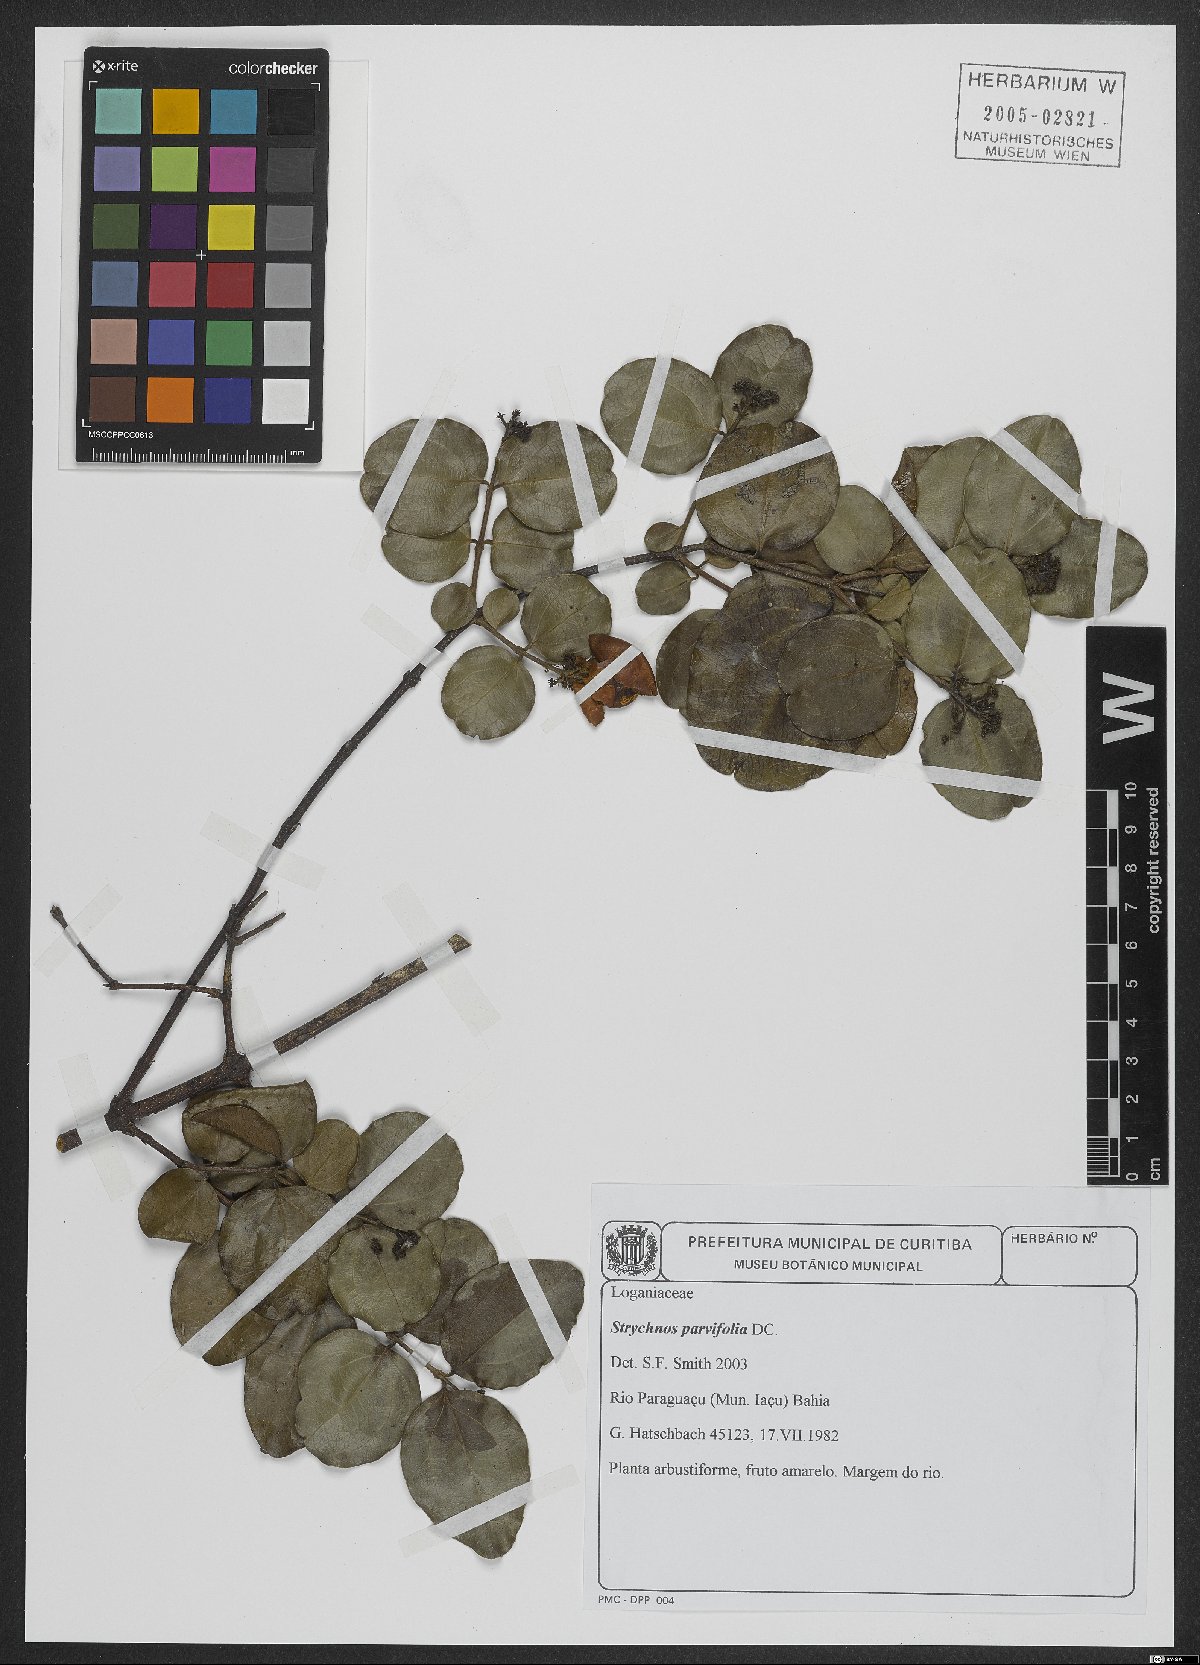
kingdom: Plantae
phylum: Tracheophyta
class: Magnoliopsida
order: Gentianales
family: Loganiaceae
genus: Strychnos
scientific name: Strychnos parvifolia
